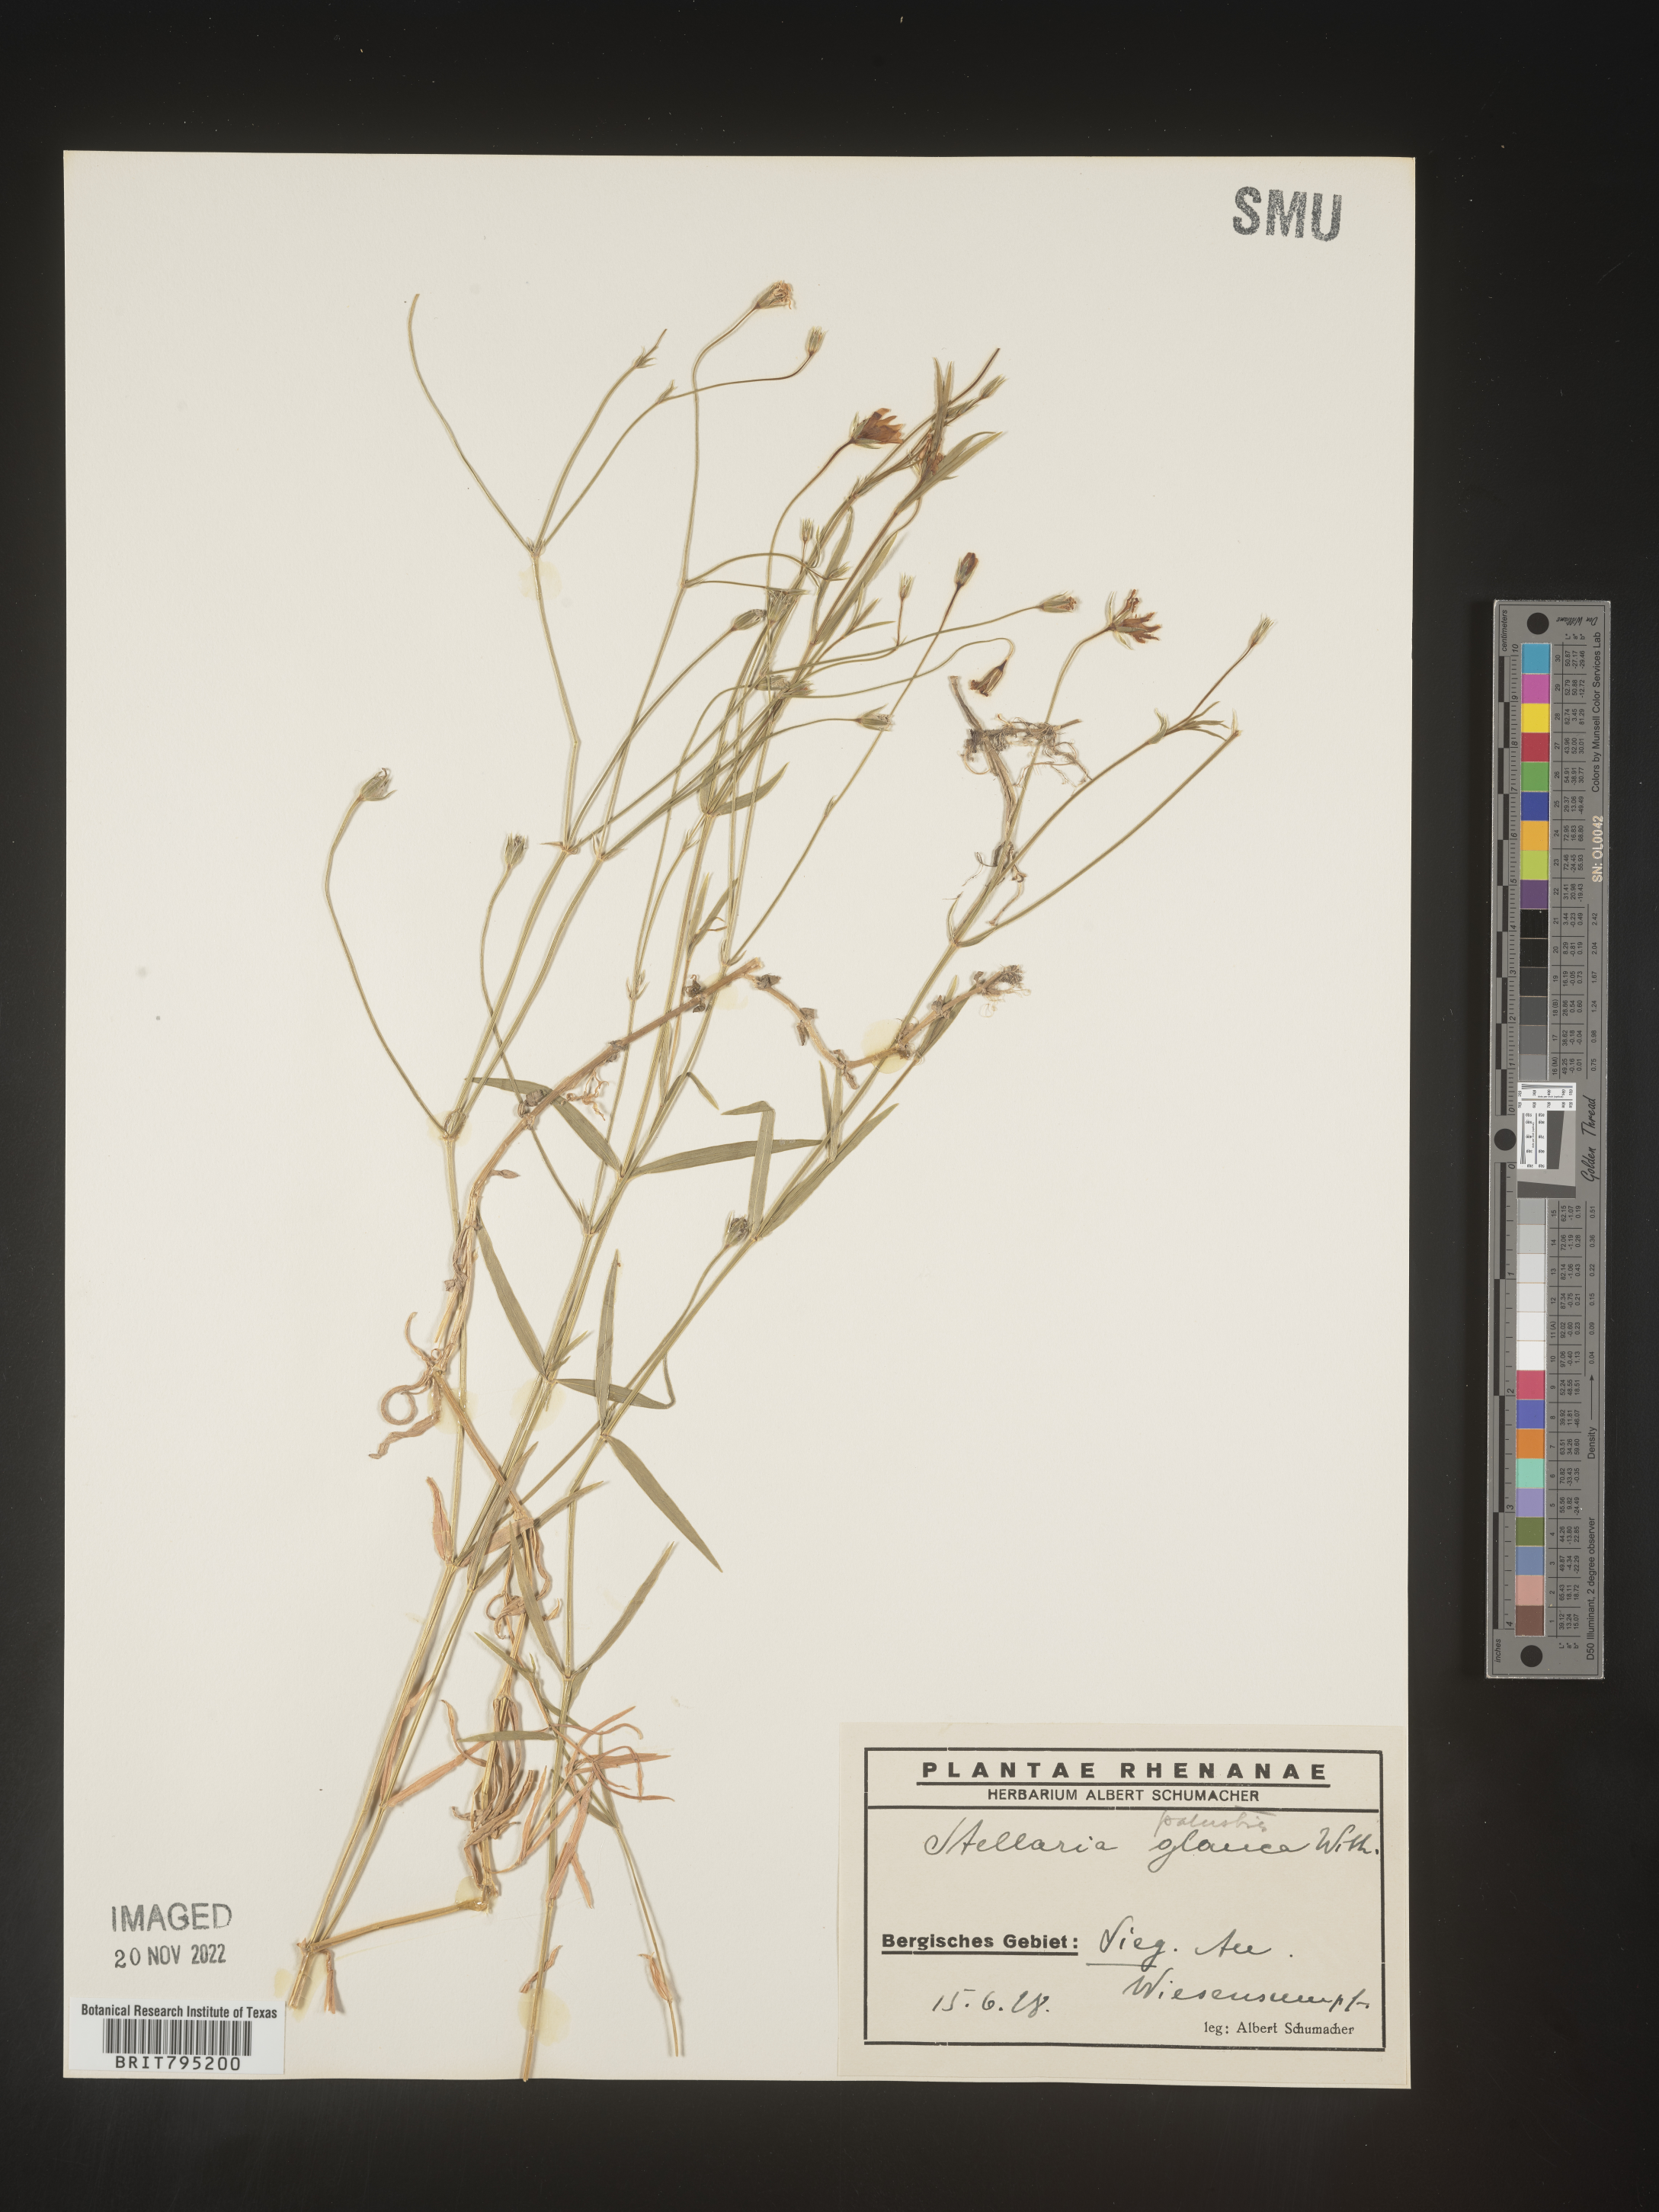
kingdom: Plantae
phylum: Tracheophyta
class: Magnoliopsida
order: Caryophyllales
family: Caryophyllaceae
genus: Stellaria
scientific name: Stellaria
